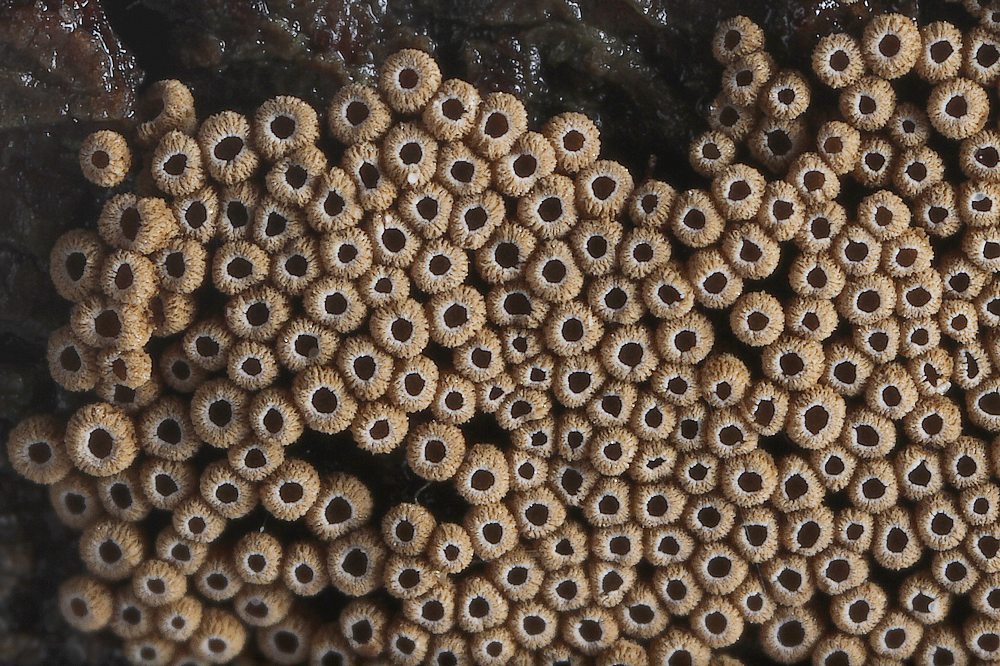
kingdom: Fungi
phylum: Basidiomycota
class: Agaricomycetes
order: Agaricales
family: Niaceae
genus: Merismodes
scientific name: Merismodes anomala
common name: almindelig læderskål
